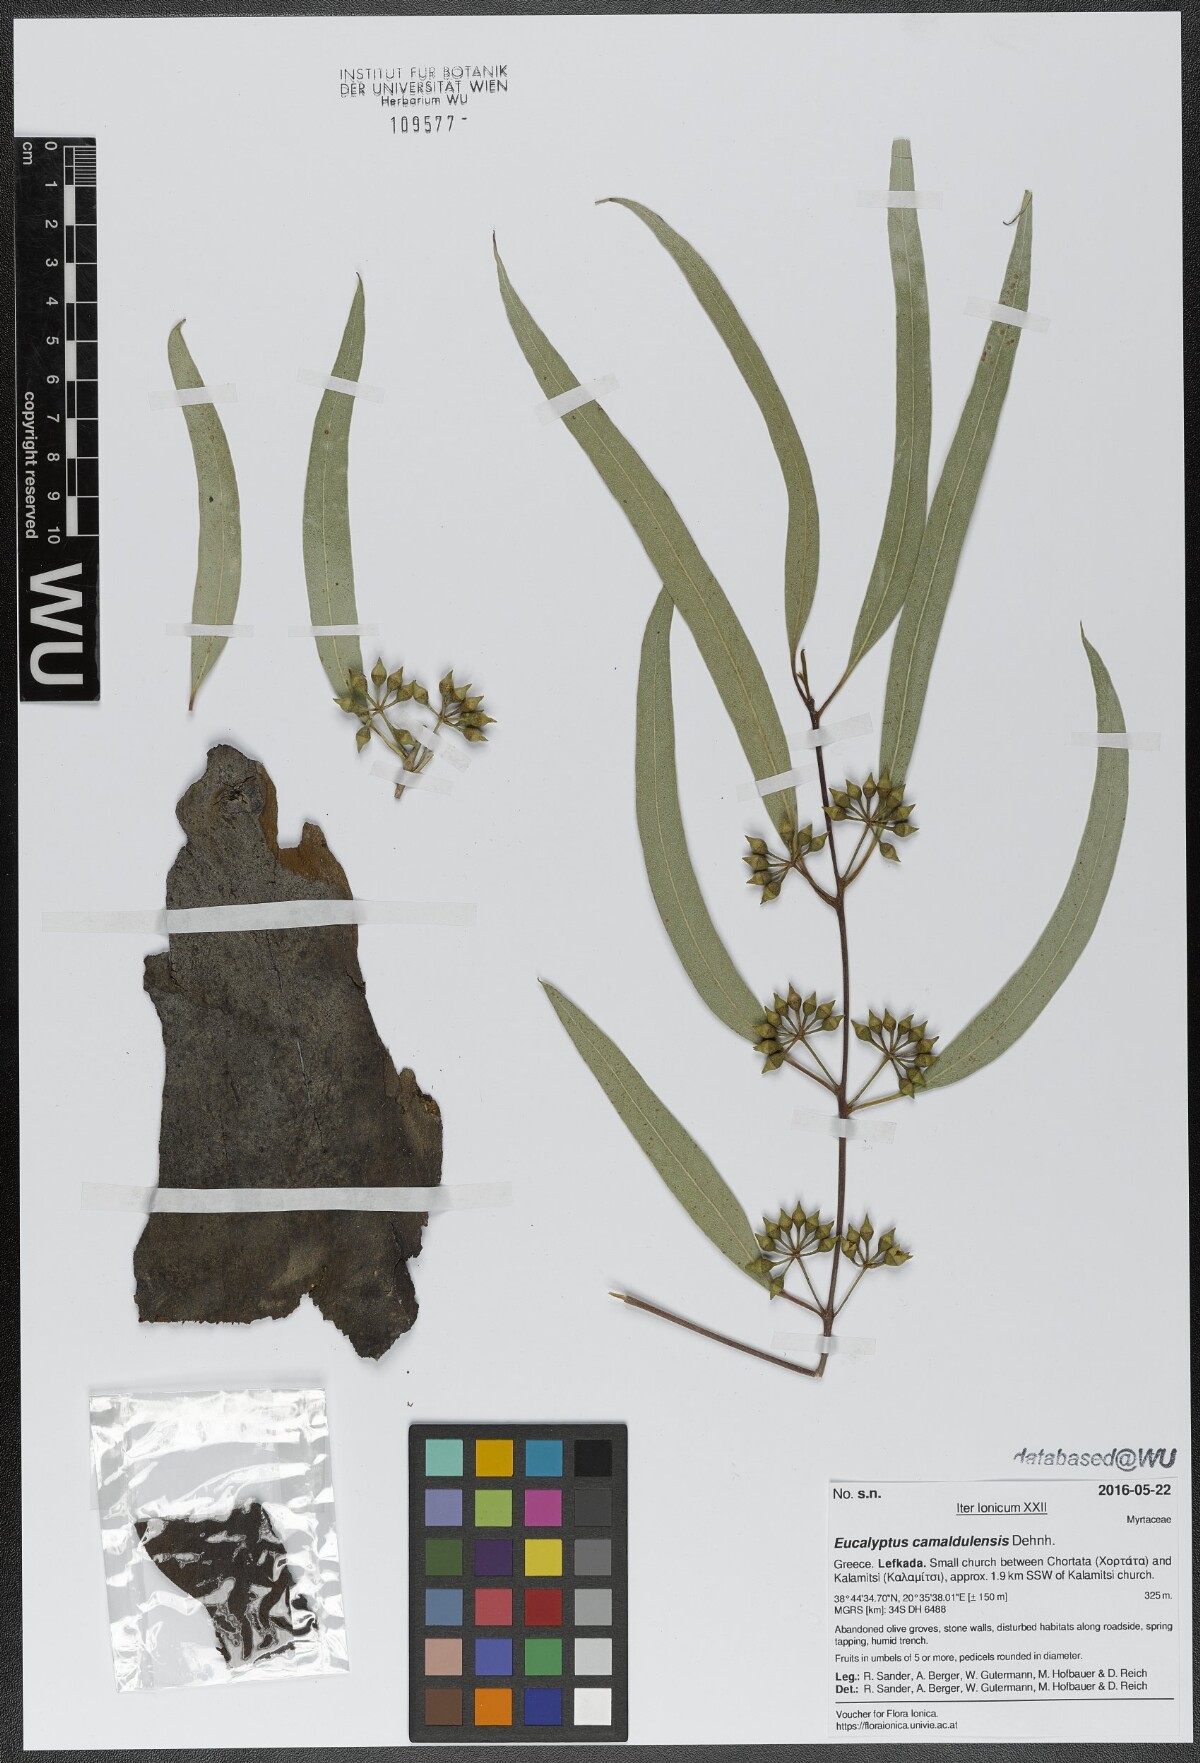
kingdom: Plantae
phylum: Tracheophyta
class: Magnoliopsida
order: Myrtales
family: Myrtaceae
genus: Eucalyptus
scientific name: Eucalyptus camaldulensis
